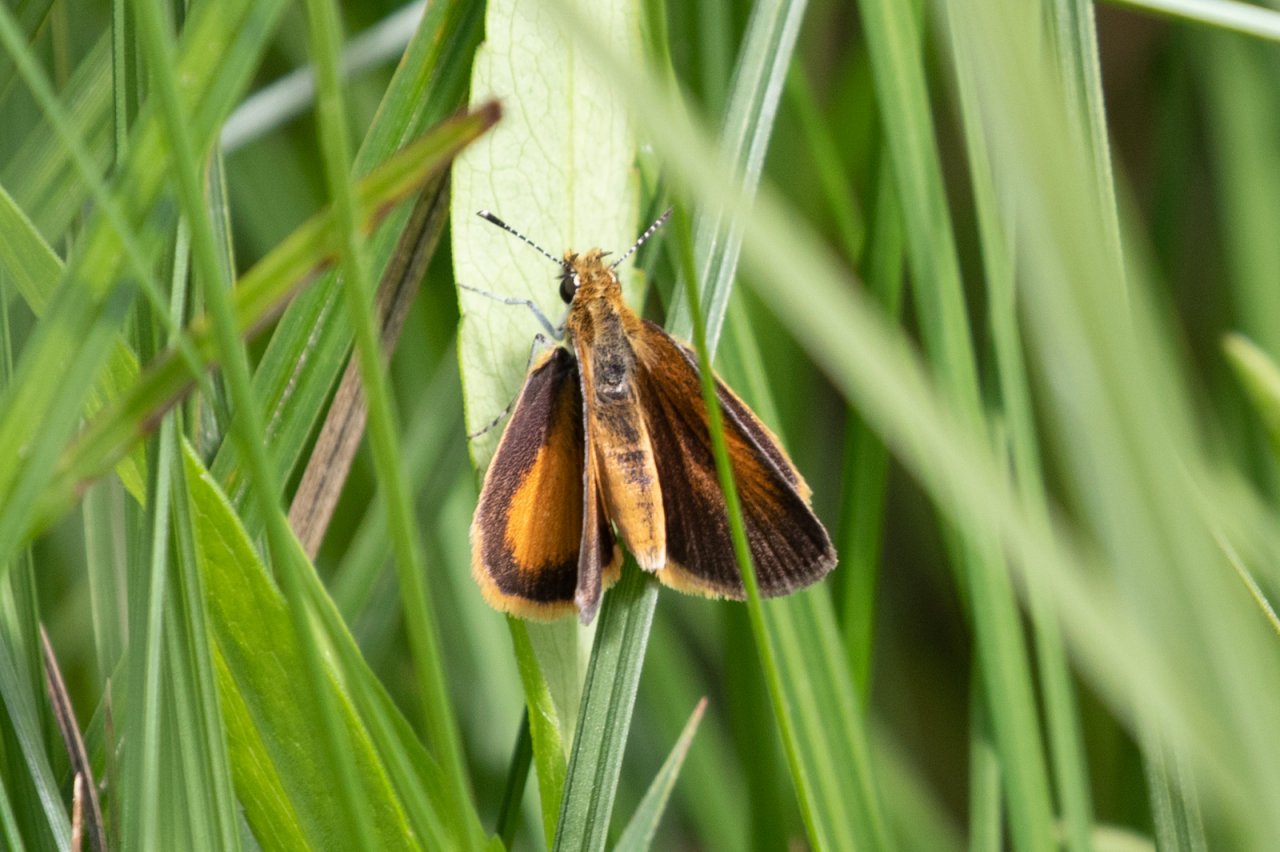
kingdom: Animalia
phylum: Arthropoda
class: Insecta
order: Lepidoptera
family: Hesperiidae
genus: Ancyloxypha
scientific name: Ancyloxypha numitor
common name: Least Skipper
